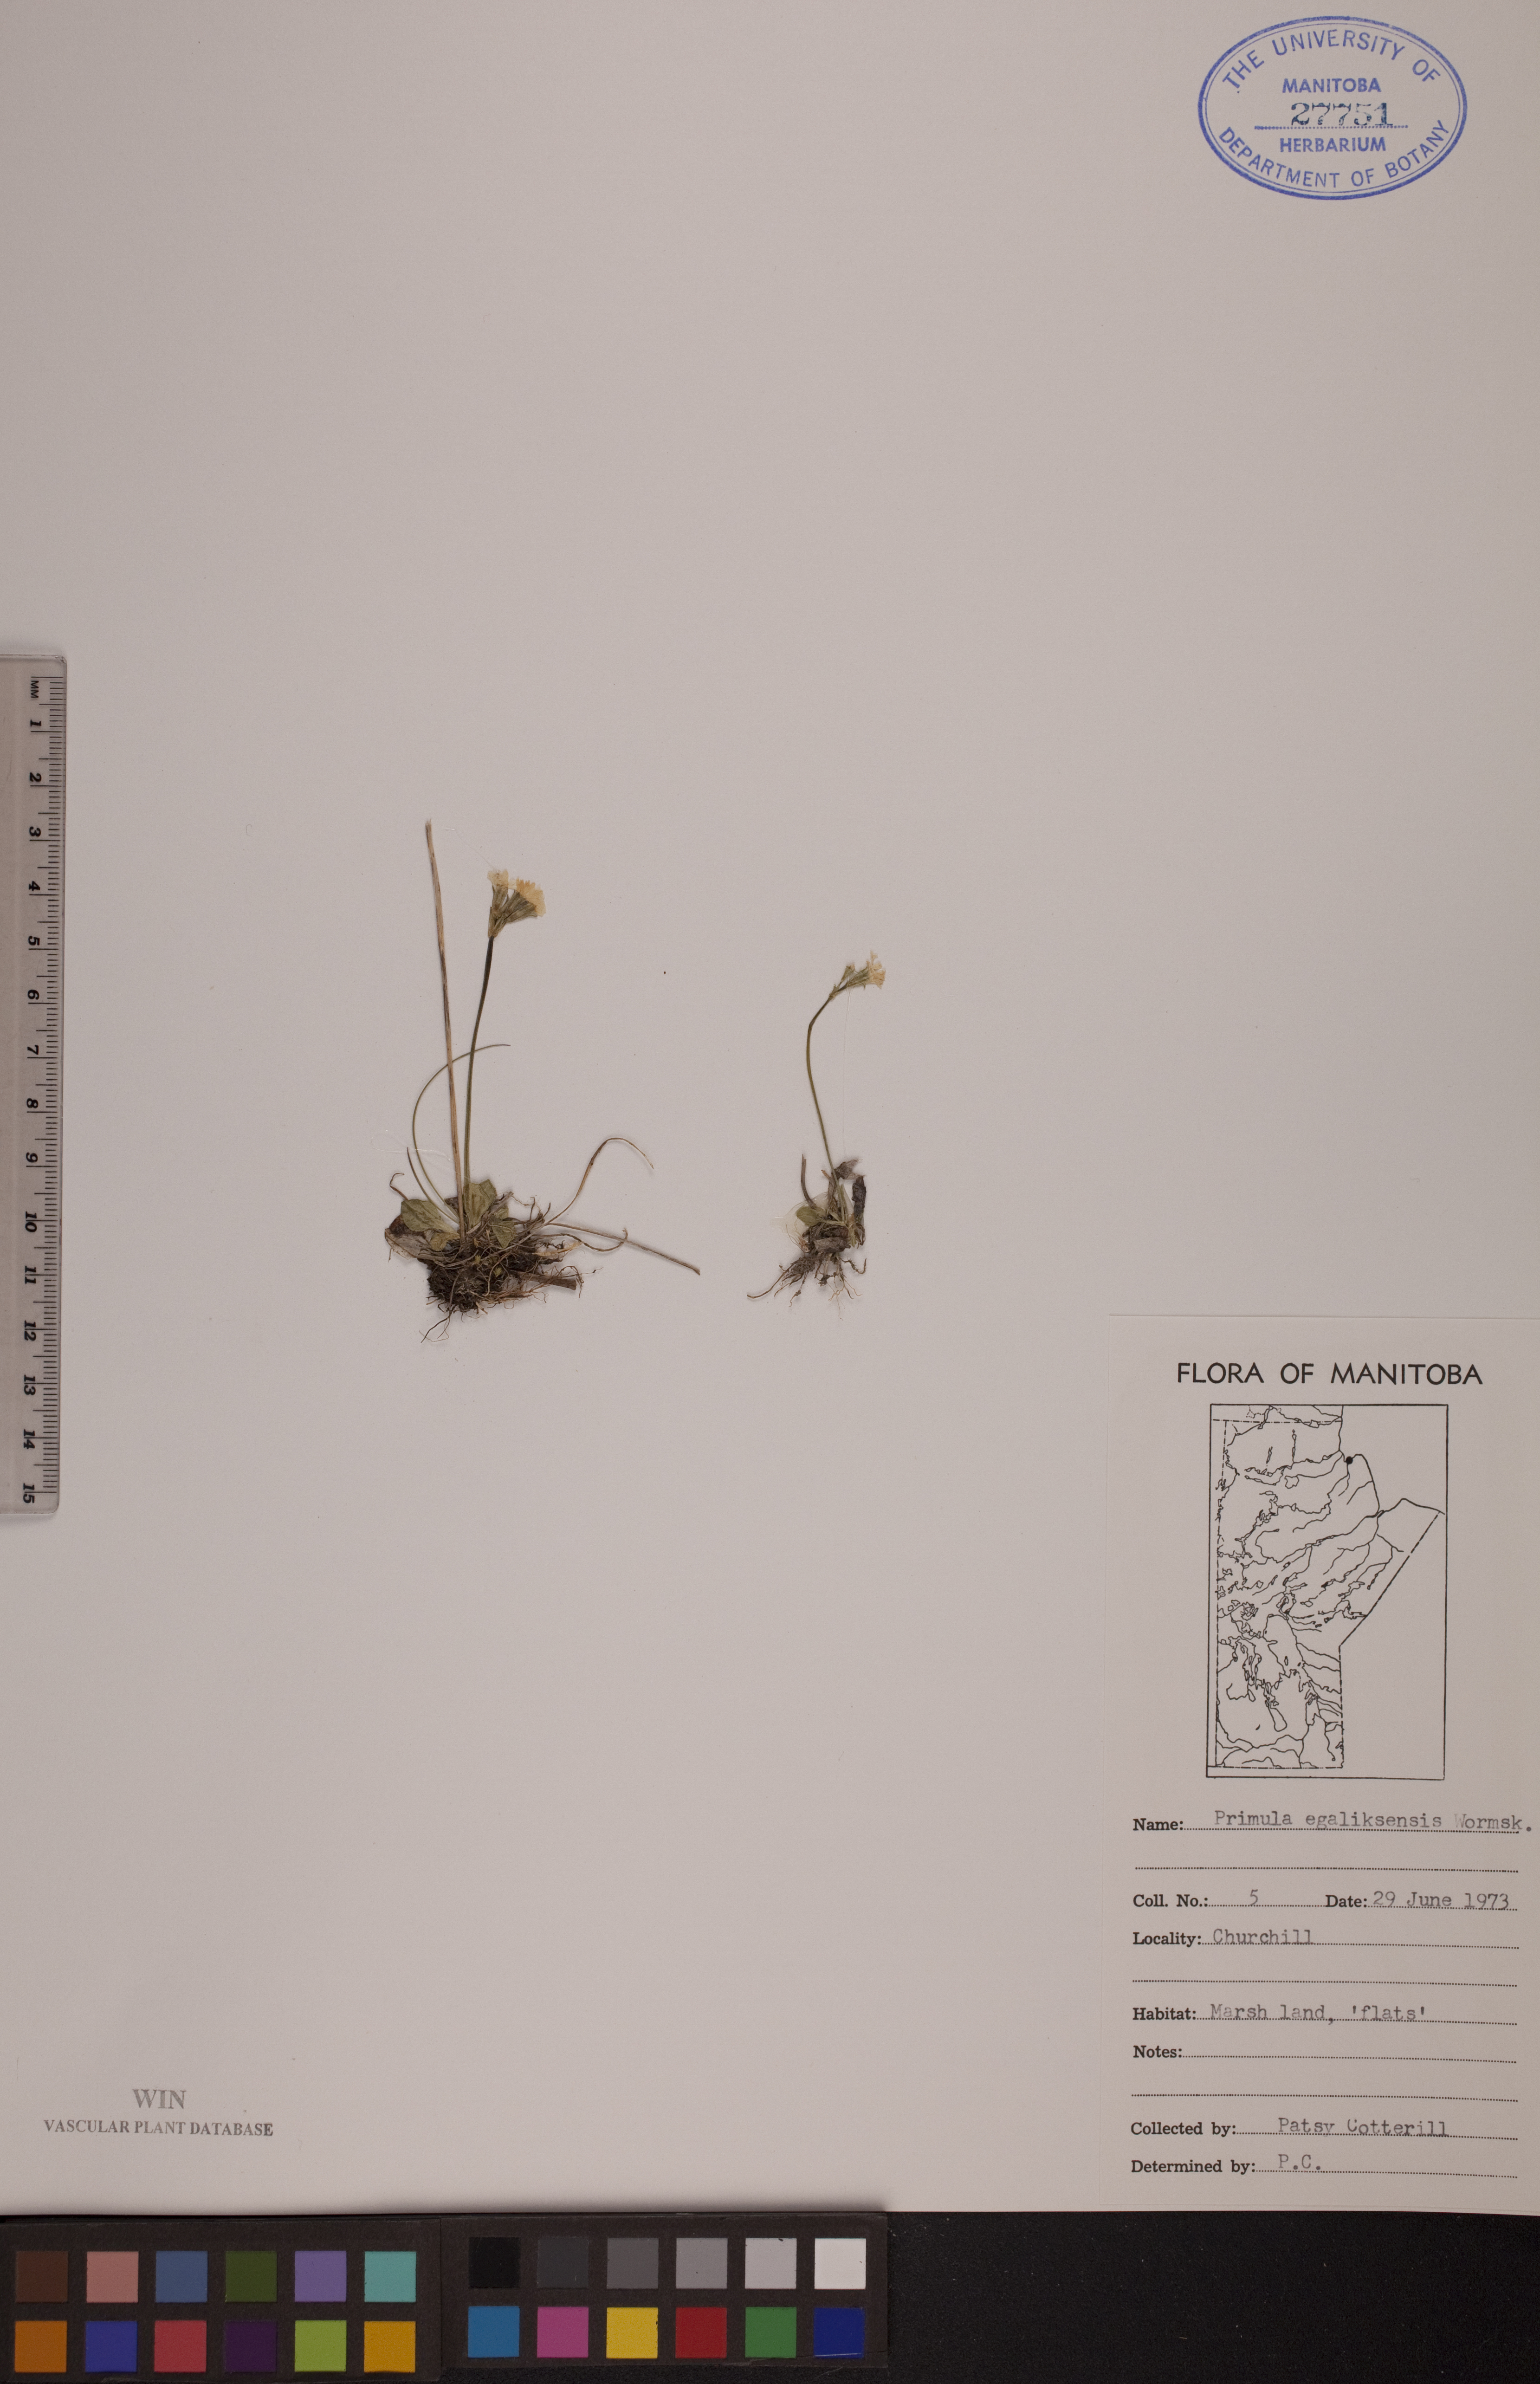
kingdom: Plantae
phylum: Tracheophyta
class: Magnoliopsida
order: Ericales
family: Primulaceae
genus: Primula
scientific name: Primula egaliksensis
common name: Greenland primrose
